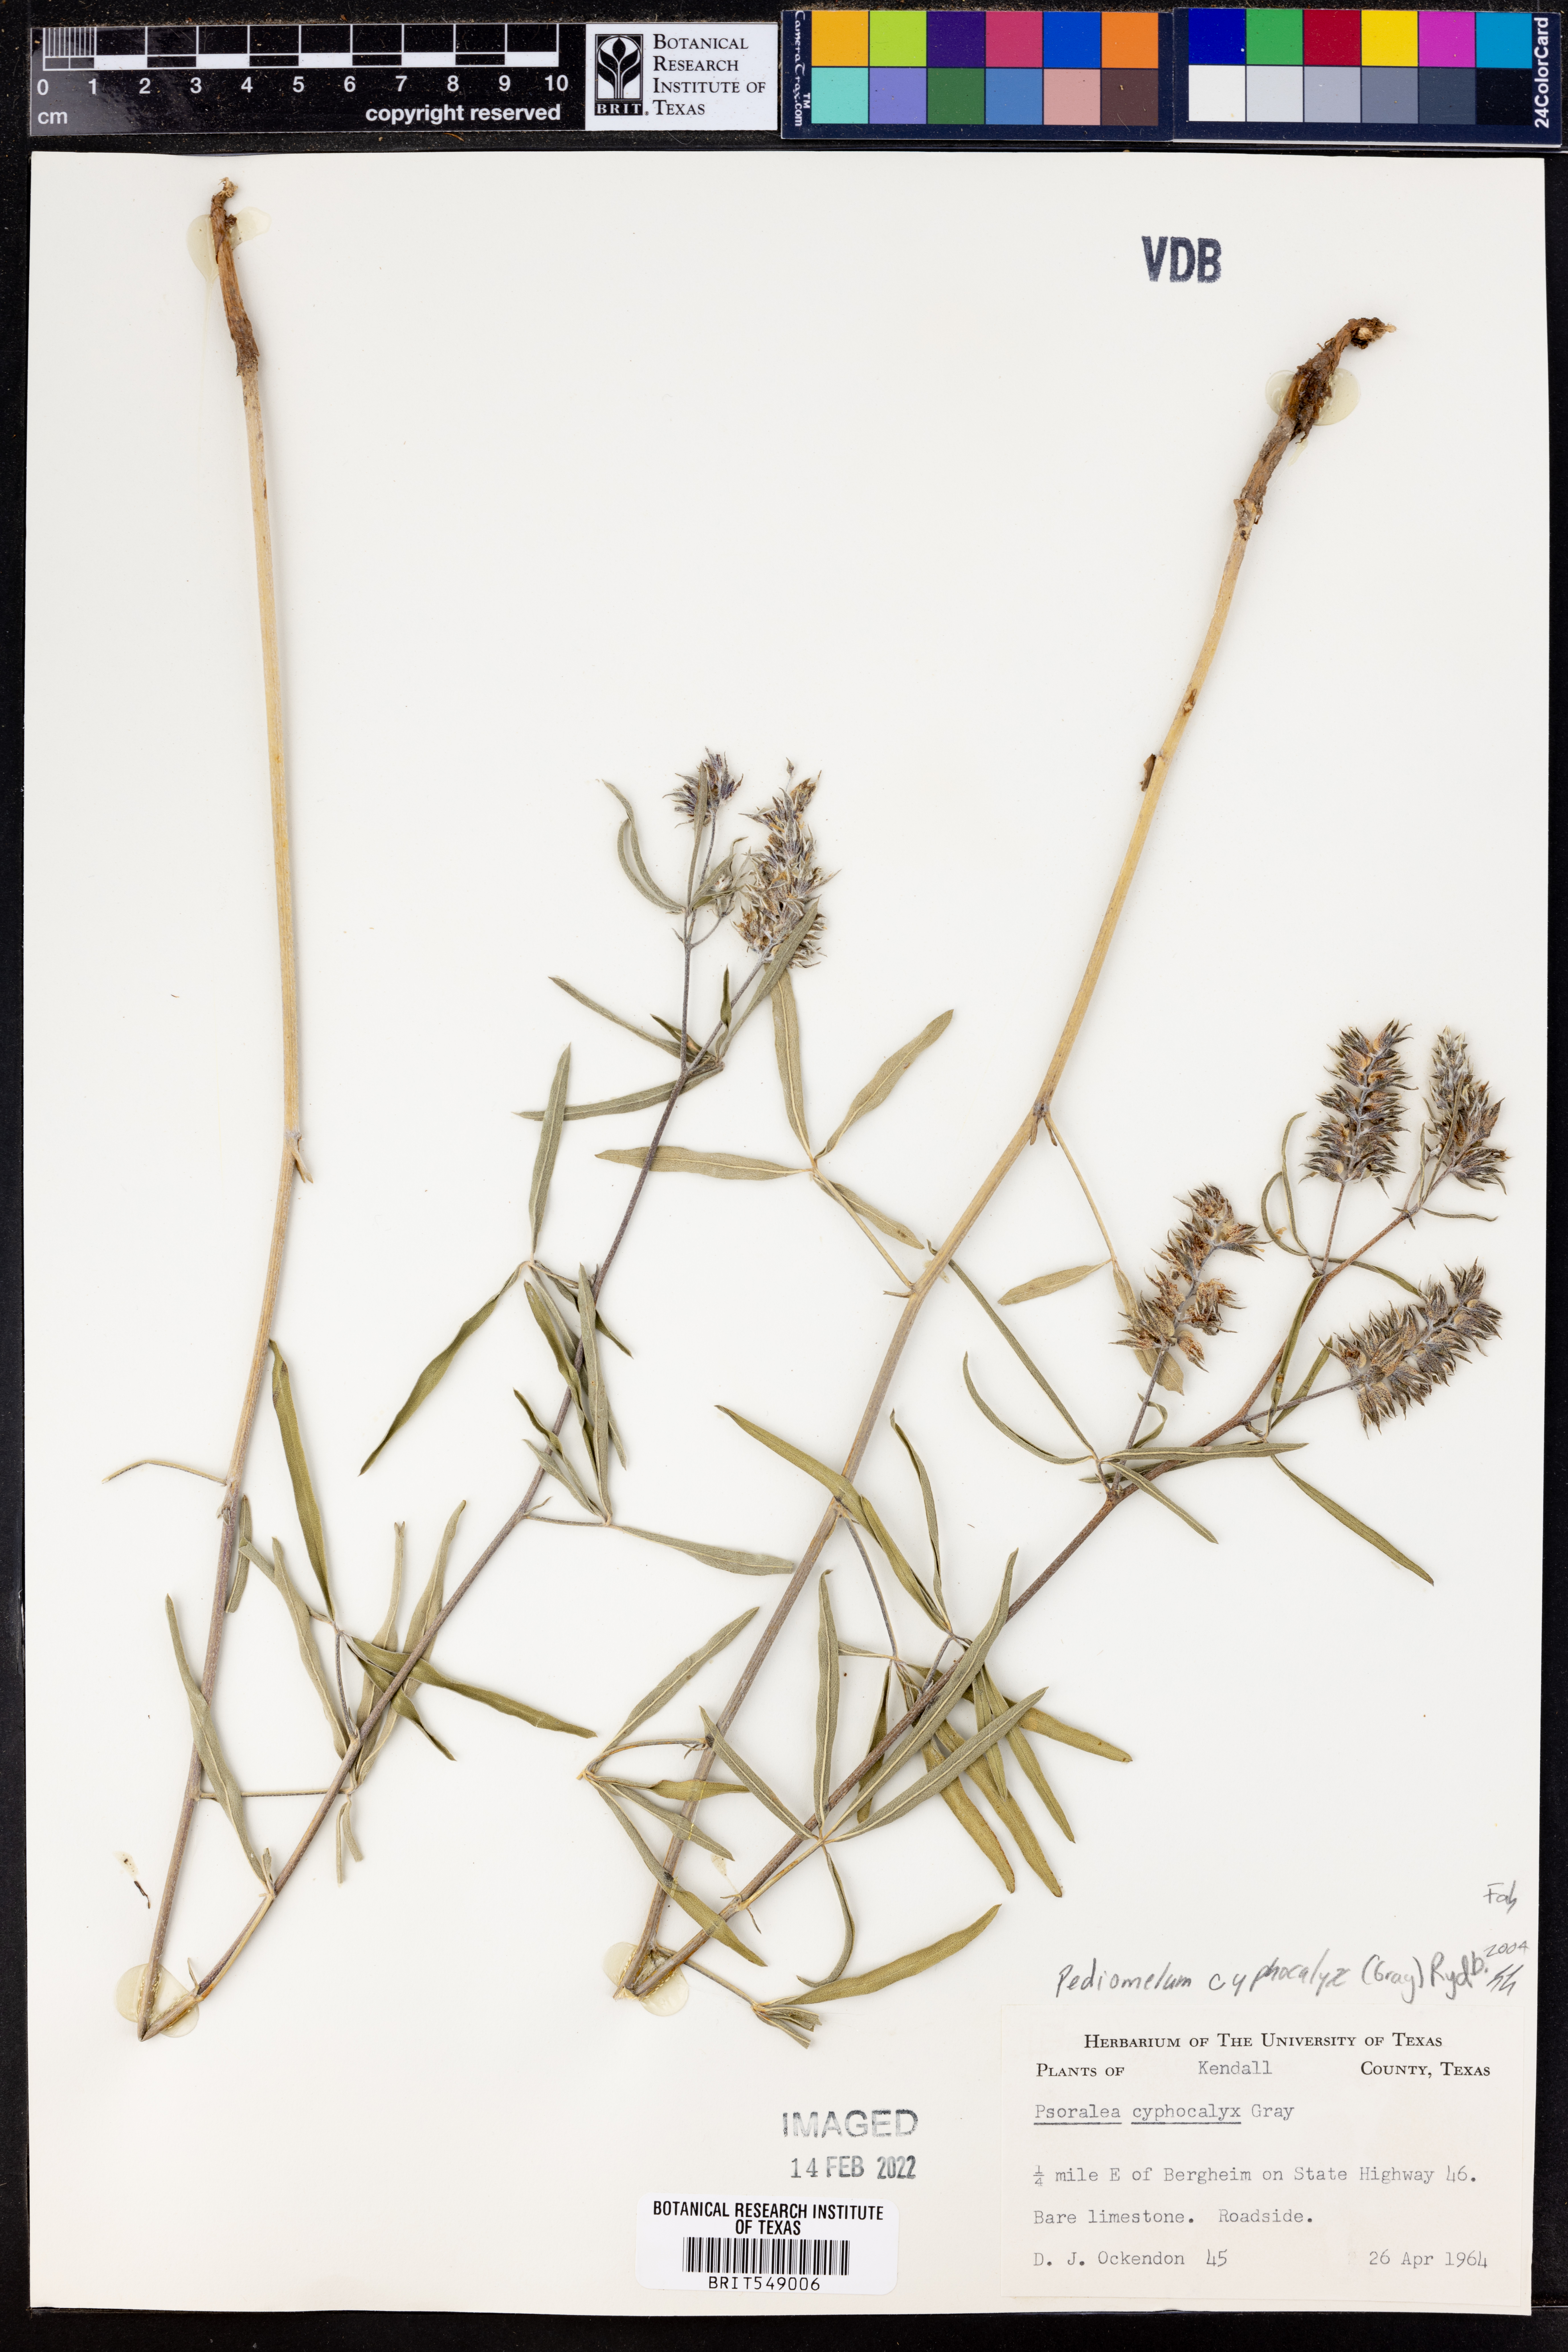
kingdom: Plantae
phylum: Tracheophyta
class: Magnoliopsida
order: Fabales
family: Fabaceae
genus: Pediomelum
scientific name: Pediomelum cyphocalyx
